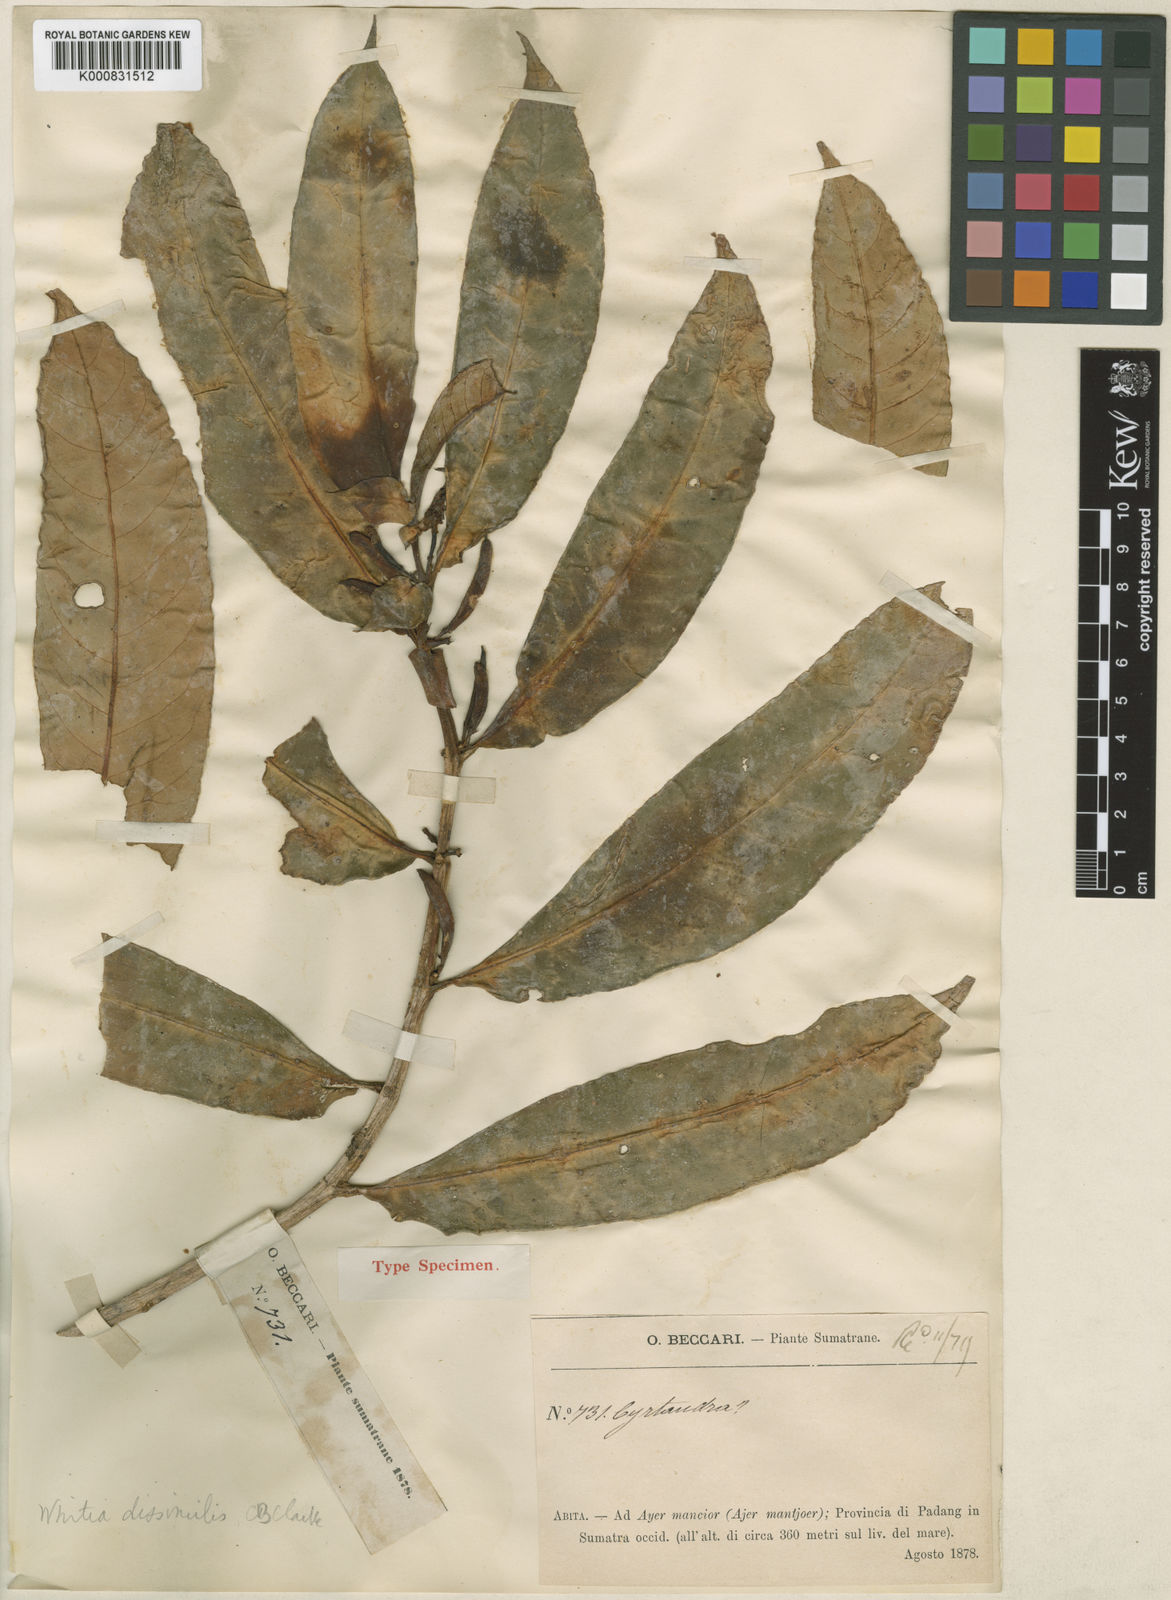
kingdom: Plantae
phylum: Tracheophyta
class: Magnoliopsida
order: Lamiales
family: Gesneriaceae
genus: Cyrtandra
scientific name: Cyrtandra dissimilis
